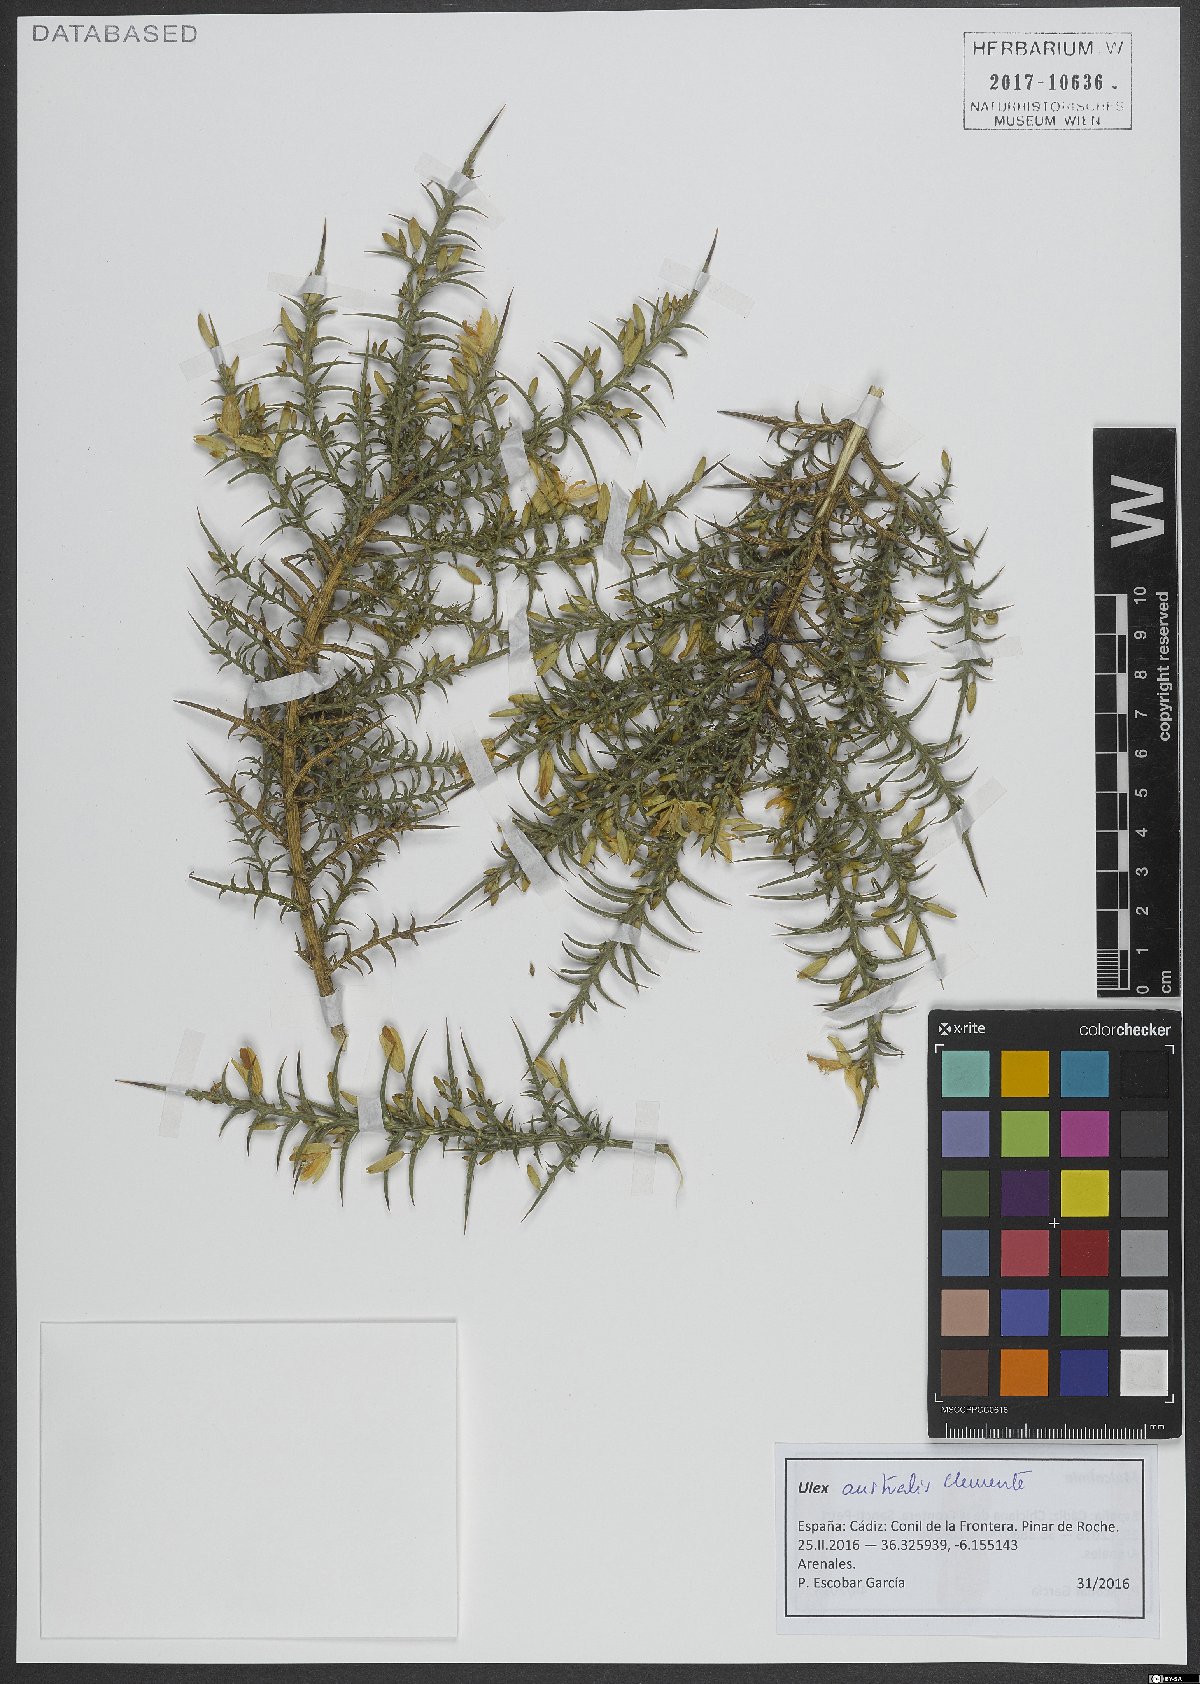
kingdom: Plantae
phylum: Tracheophyta
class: Magnoliopsida
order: Fabales
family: Fabaceae
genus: Ulex
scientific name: Ulex australis
